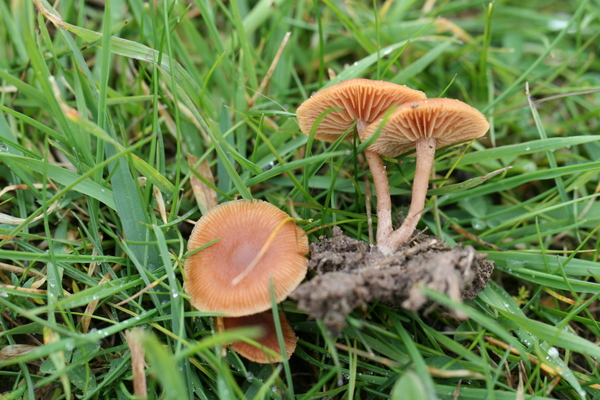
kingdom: Fungi
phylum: Basidiomycota
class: Agaricomycetes
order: Agaricales
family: Tubariaceae
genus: Tubaria
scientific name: Tubaria furfuracea
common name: kliddet fnughat
